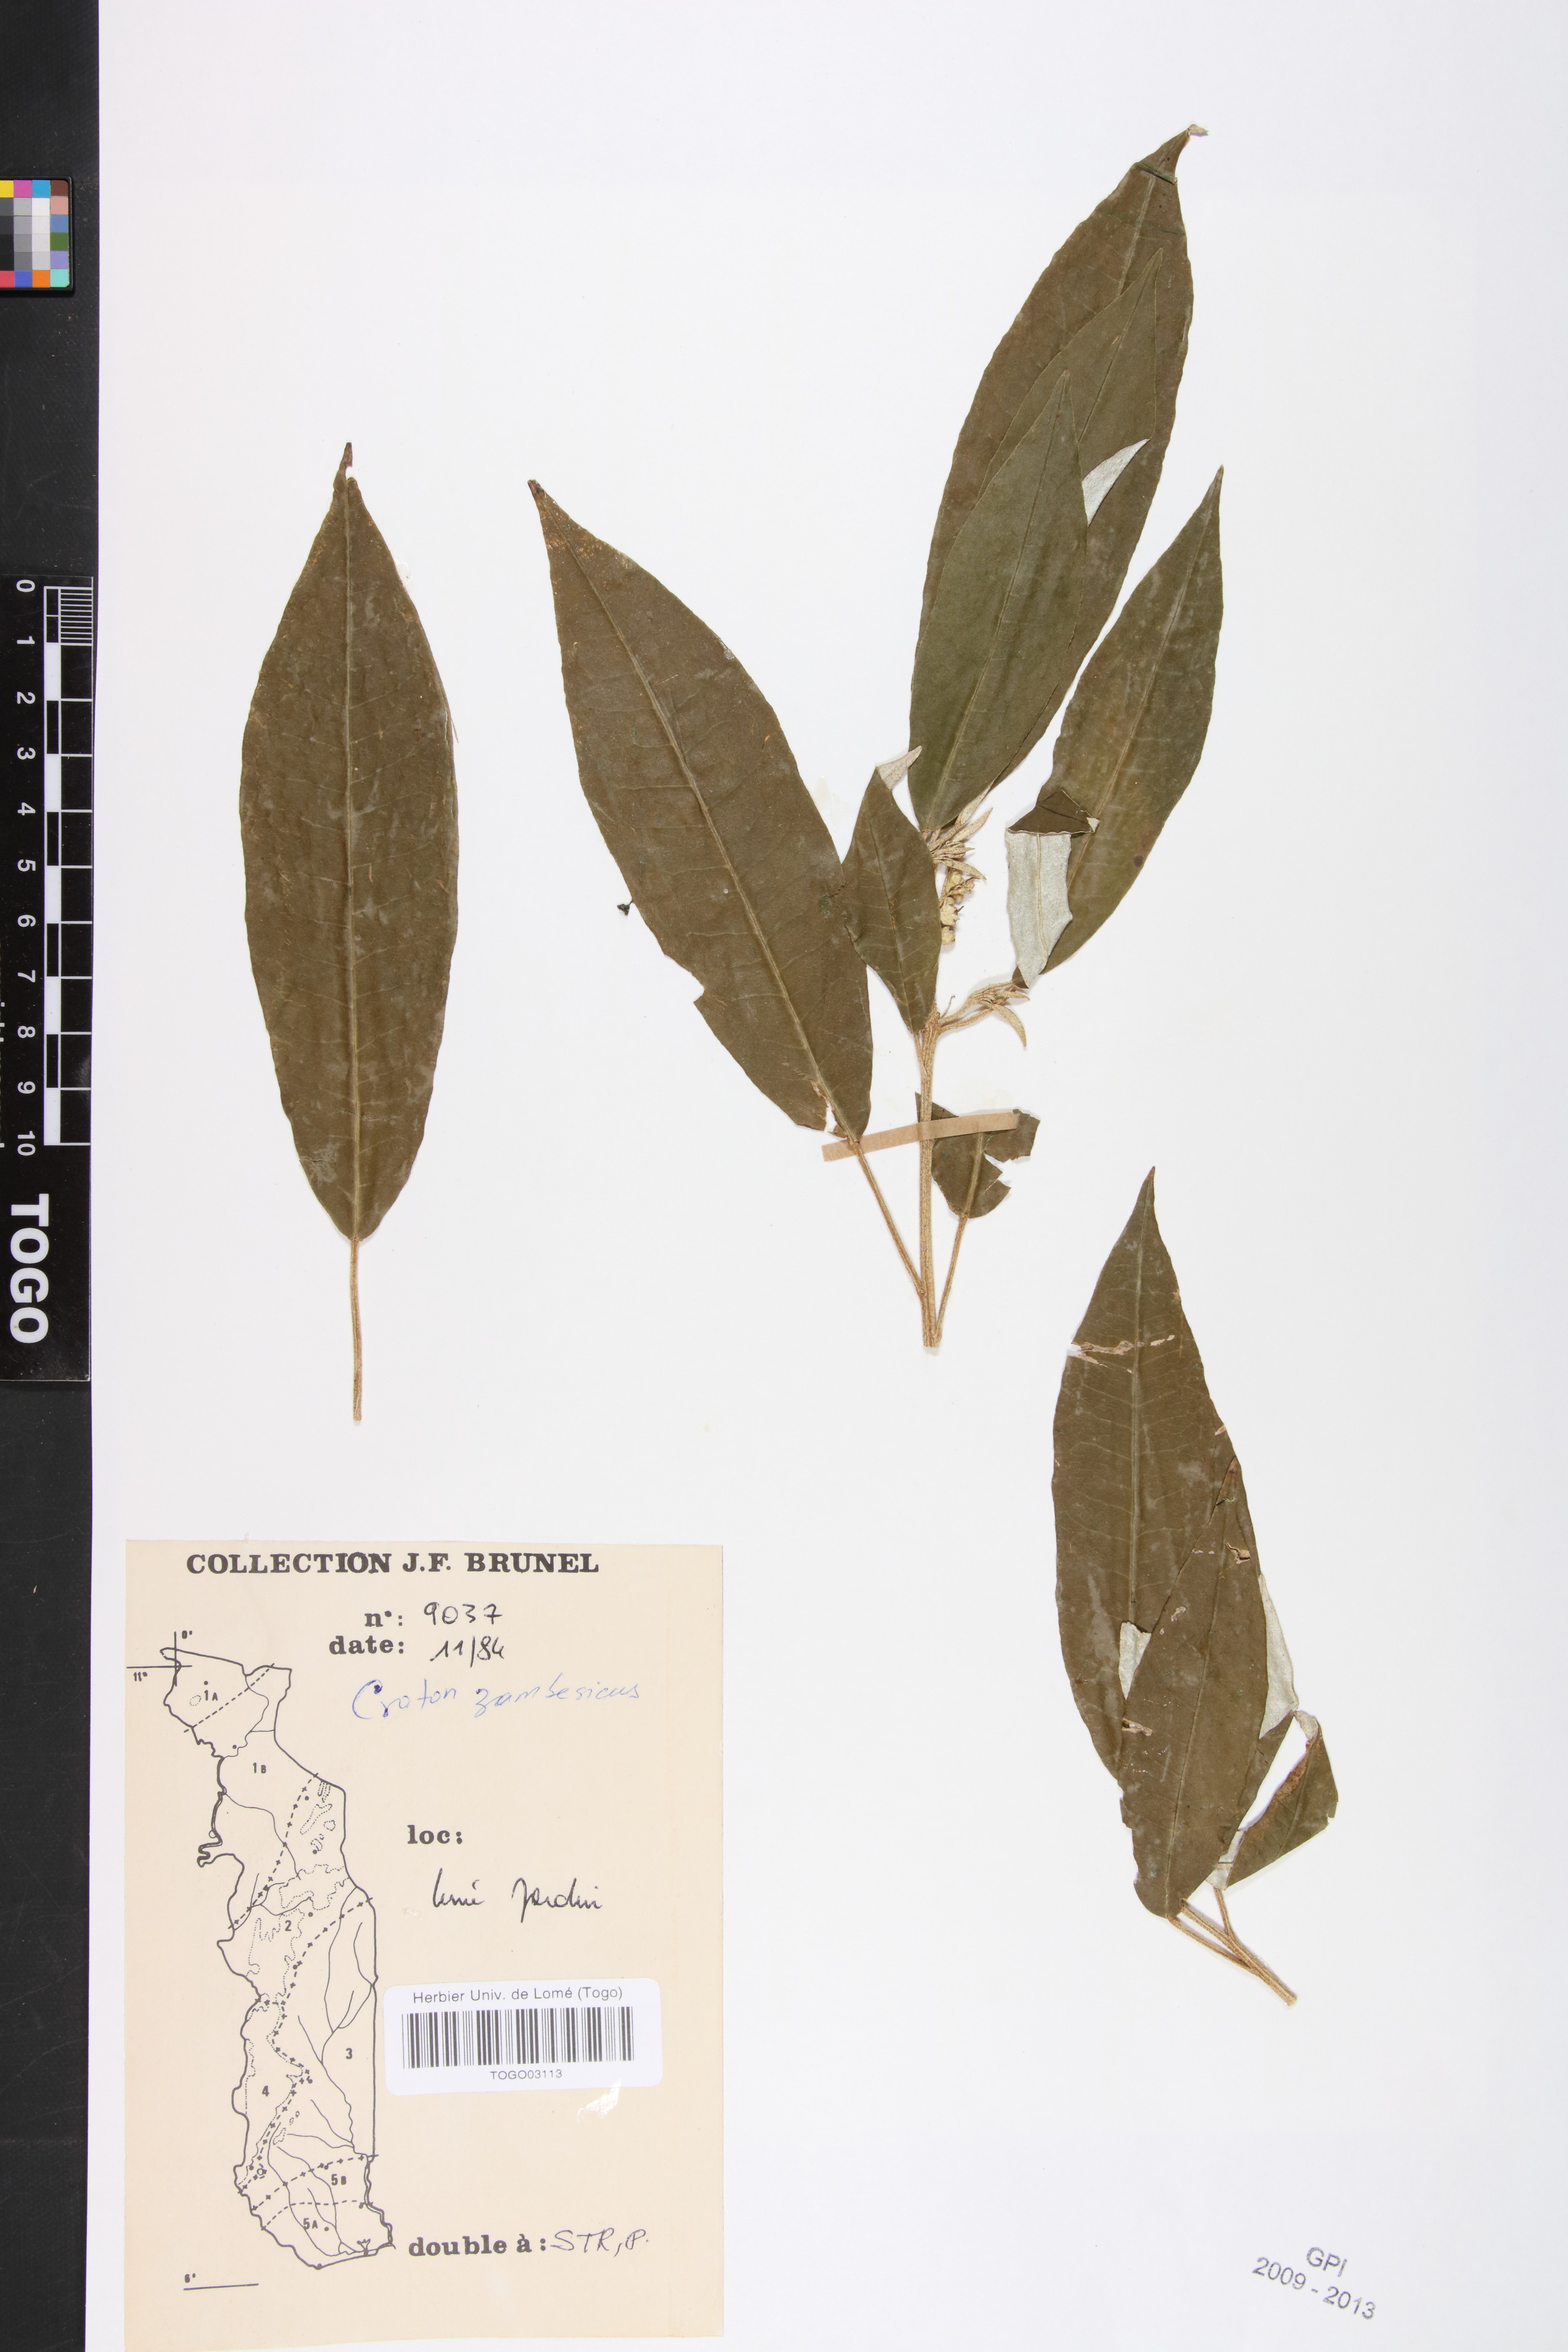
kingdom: Plantae
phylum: Tracheophyta
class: Magnoliopsida
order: Malpighiales
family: Euphorbiaceae
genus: Croton
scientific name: Croton gratissimus
